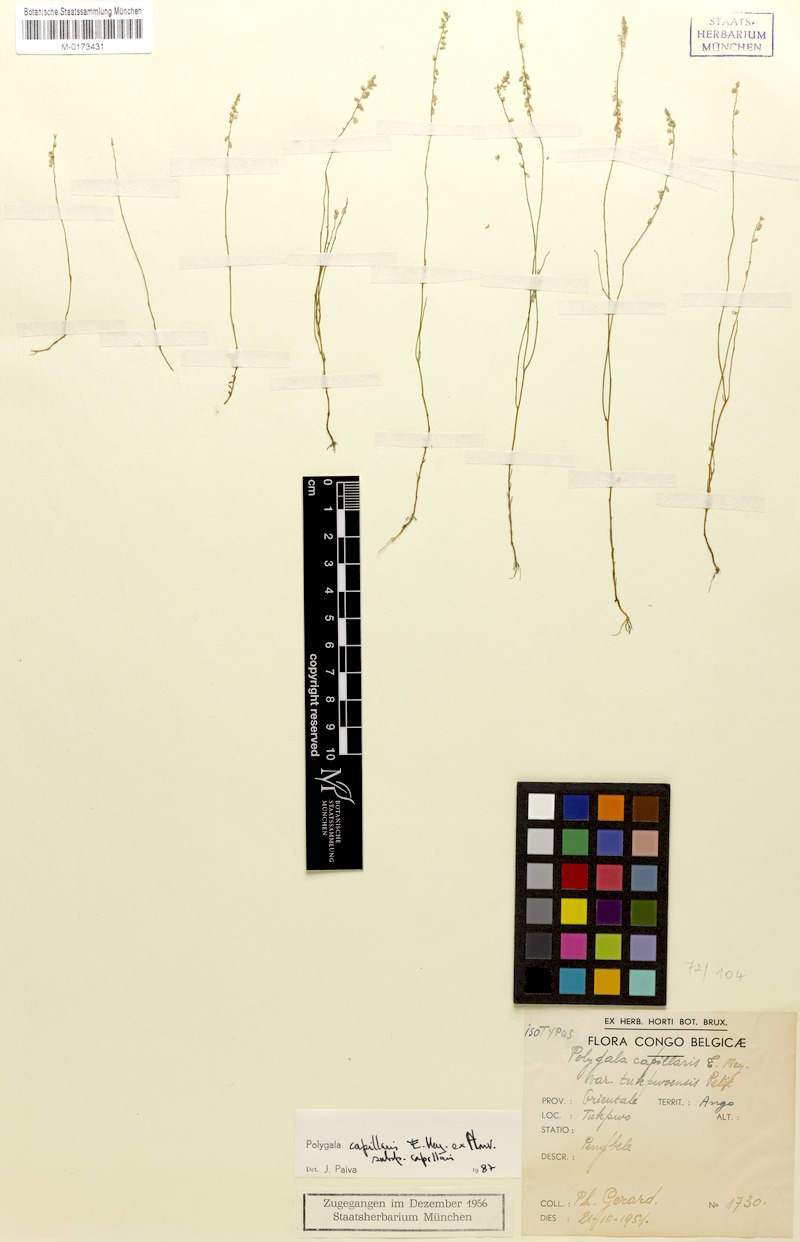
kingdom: Plantae
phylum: Tracheophyta
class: Magnoliopsida
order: Fabales
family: Polygalaceae
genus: Polygala
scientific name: Polygala capillaris
